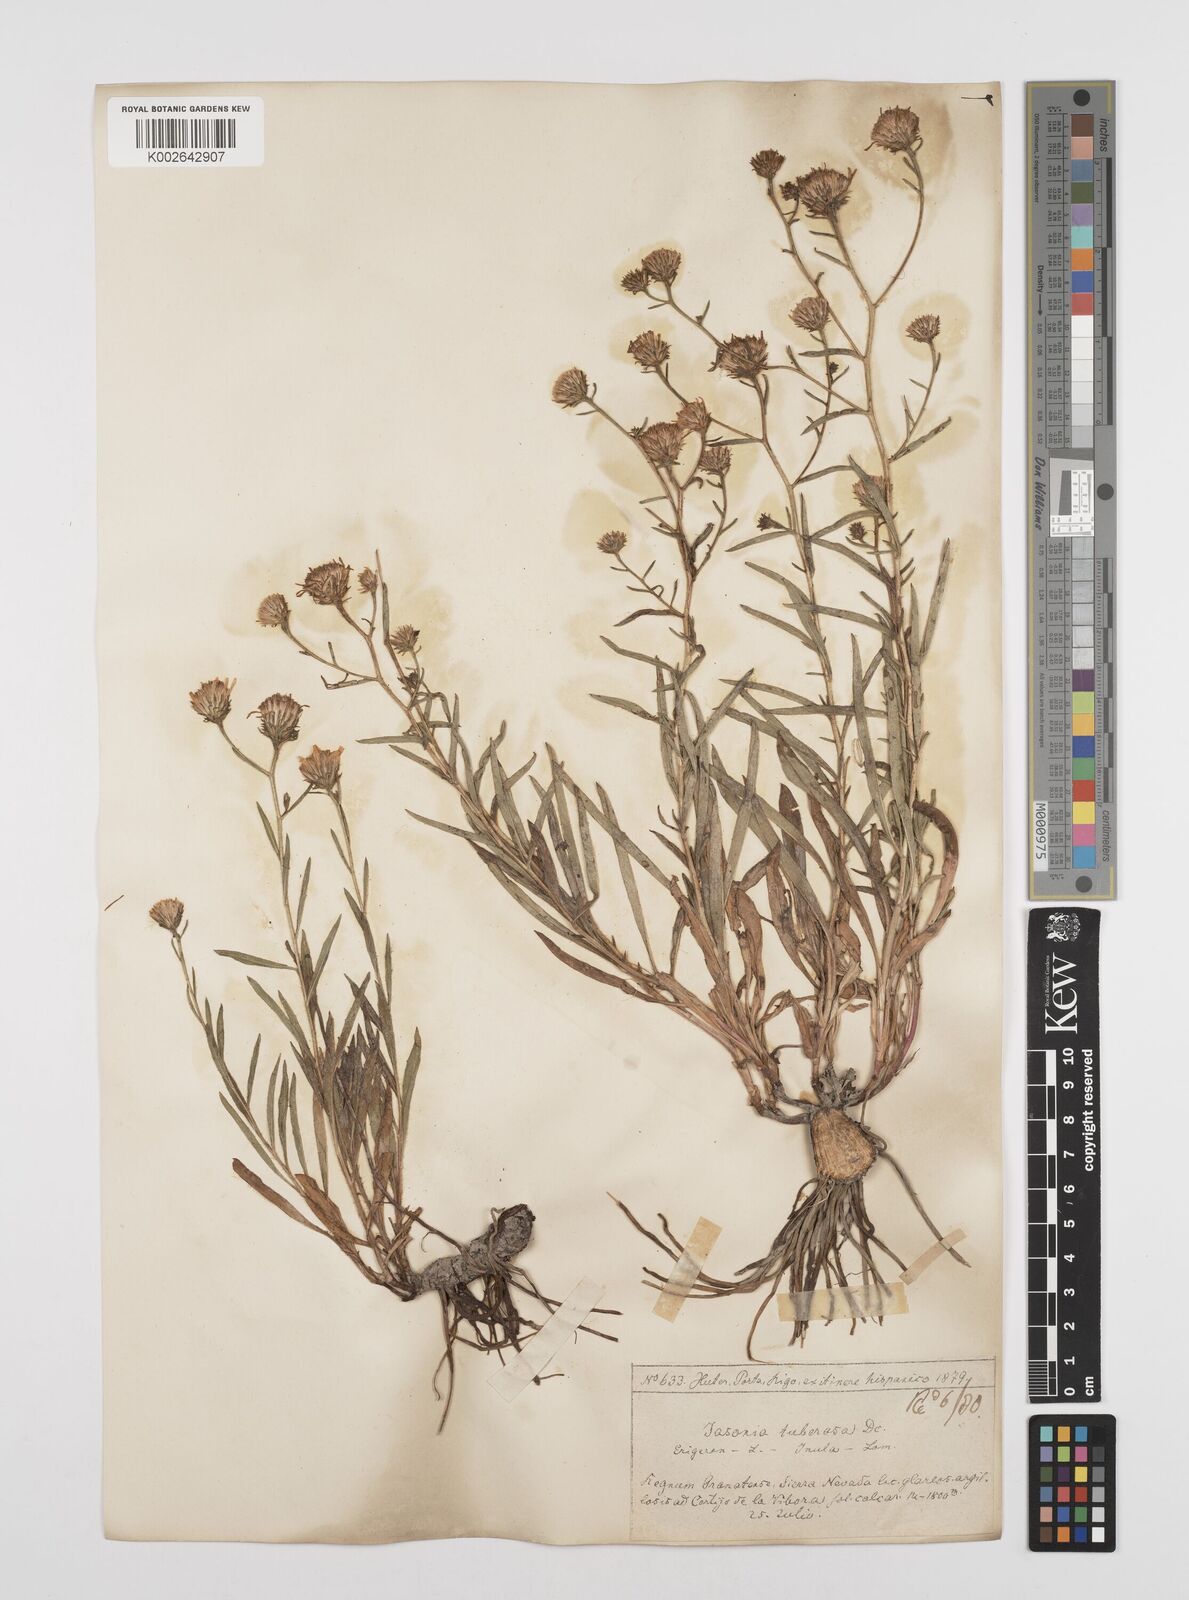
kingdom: Plantae
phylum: Tracheophyta
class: Magnoliopsida
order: Asterales
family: Asteraceae
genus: Jasonia
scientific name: Jasonia tuberosa
